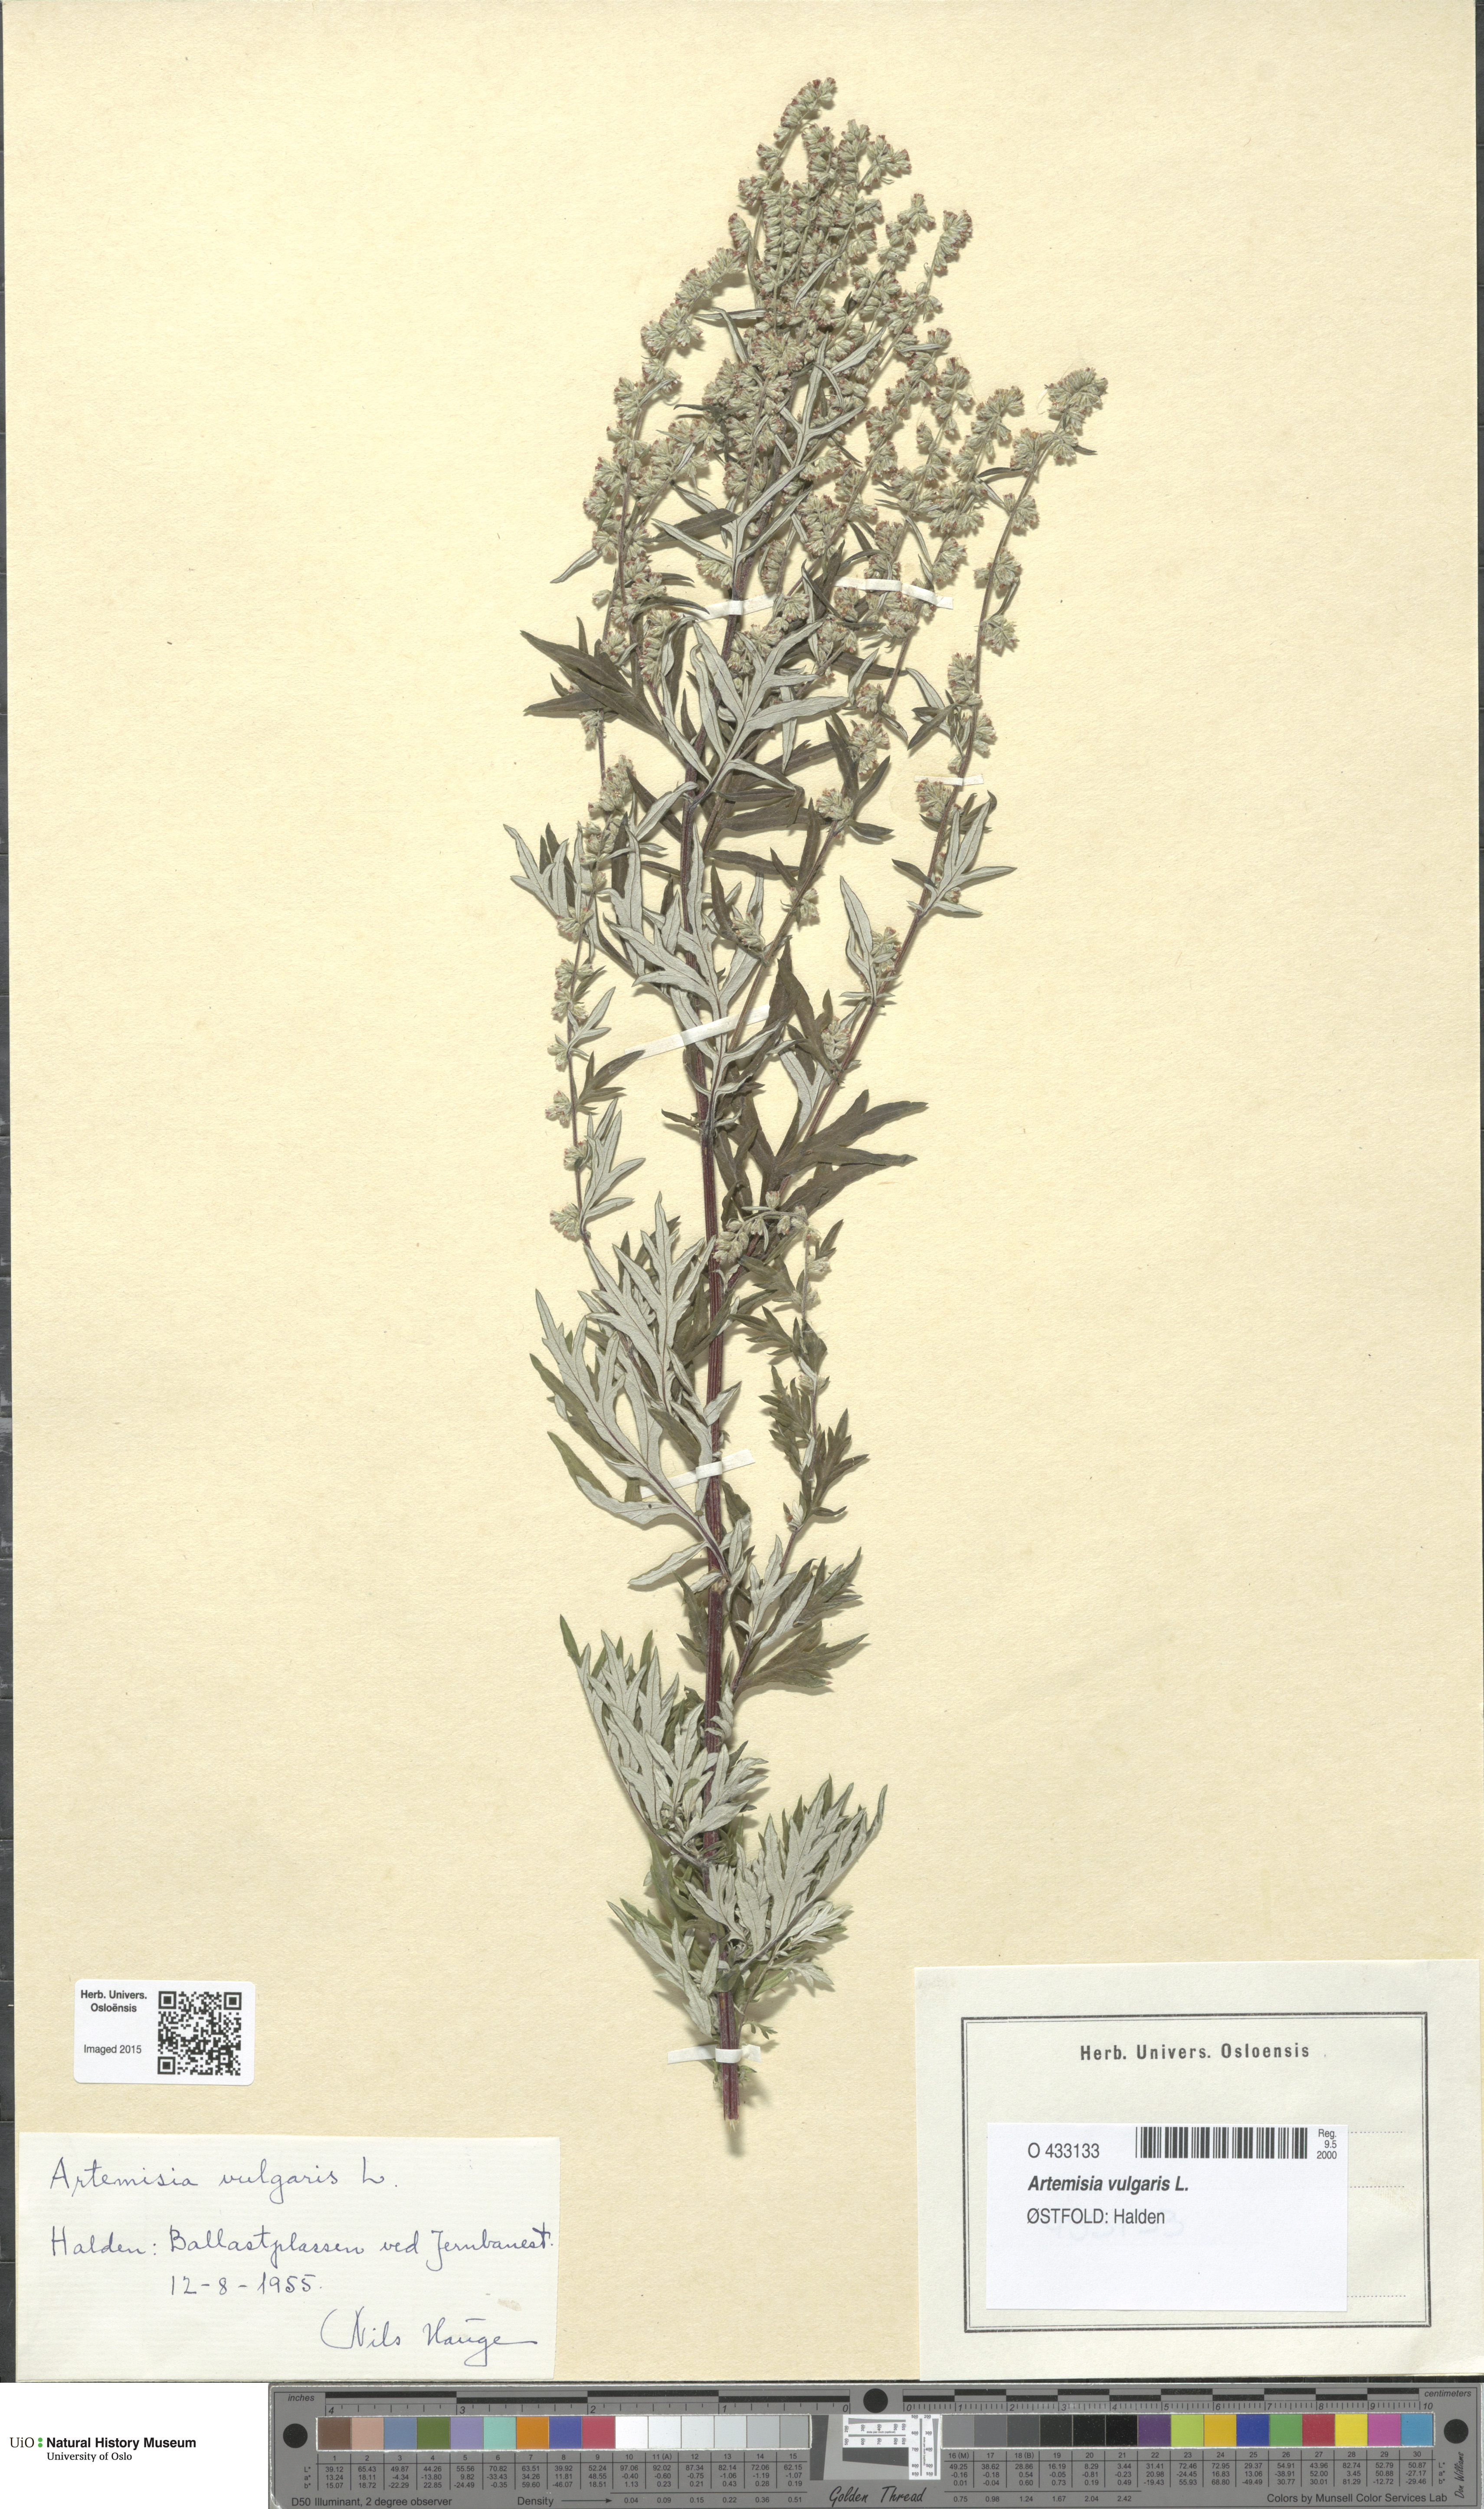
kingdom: Plantae
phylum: Tracheophyta
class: Magnoliopsida
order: Asterales
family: Asteraceae
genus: Artemisia
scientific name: Artemisia vulgaris
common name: Mugwort
